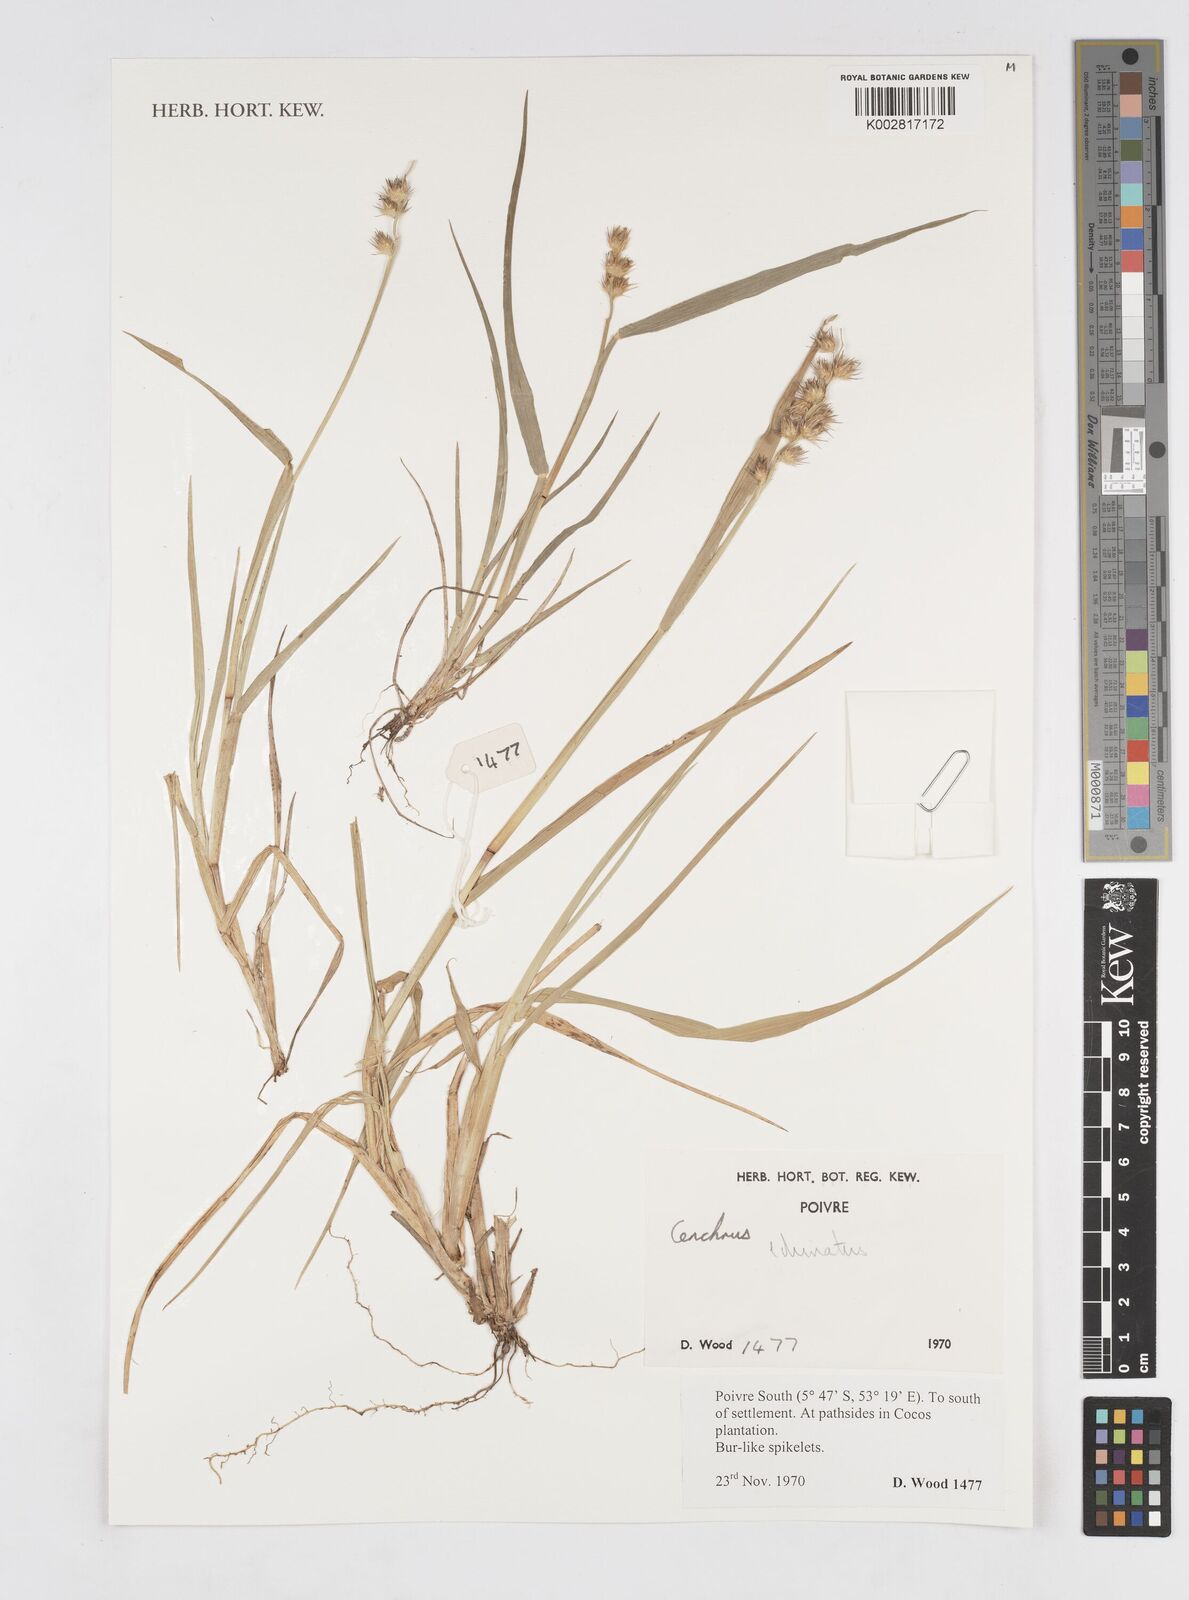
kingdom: Plantae
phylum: Tracheophyta
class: Liliopsida
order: Poales
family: Poaceae
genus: Cenchrus
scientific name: Cenchrus echinatus
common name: Southern sandbur
